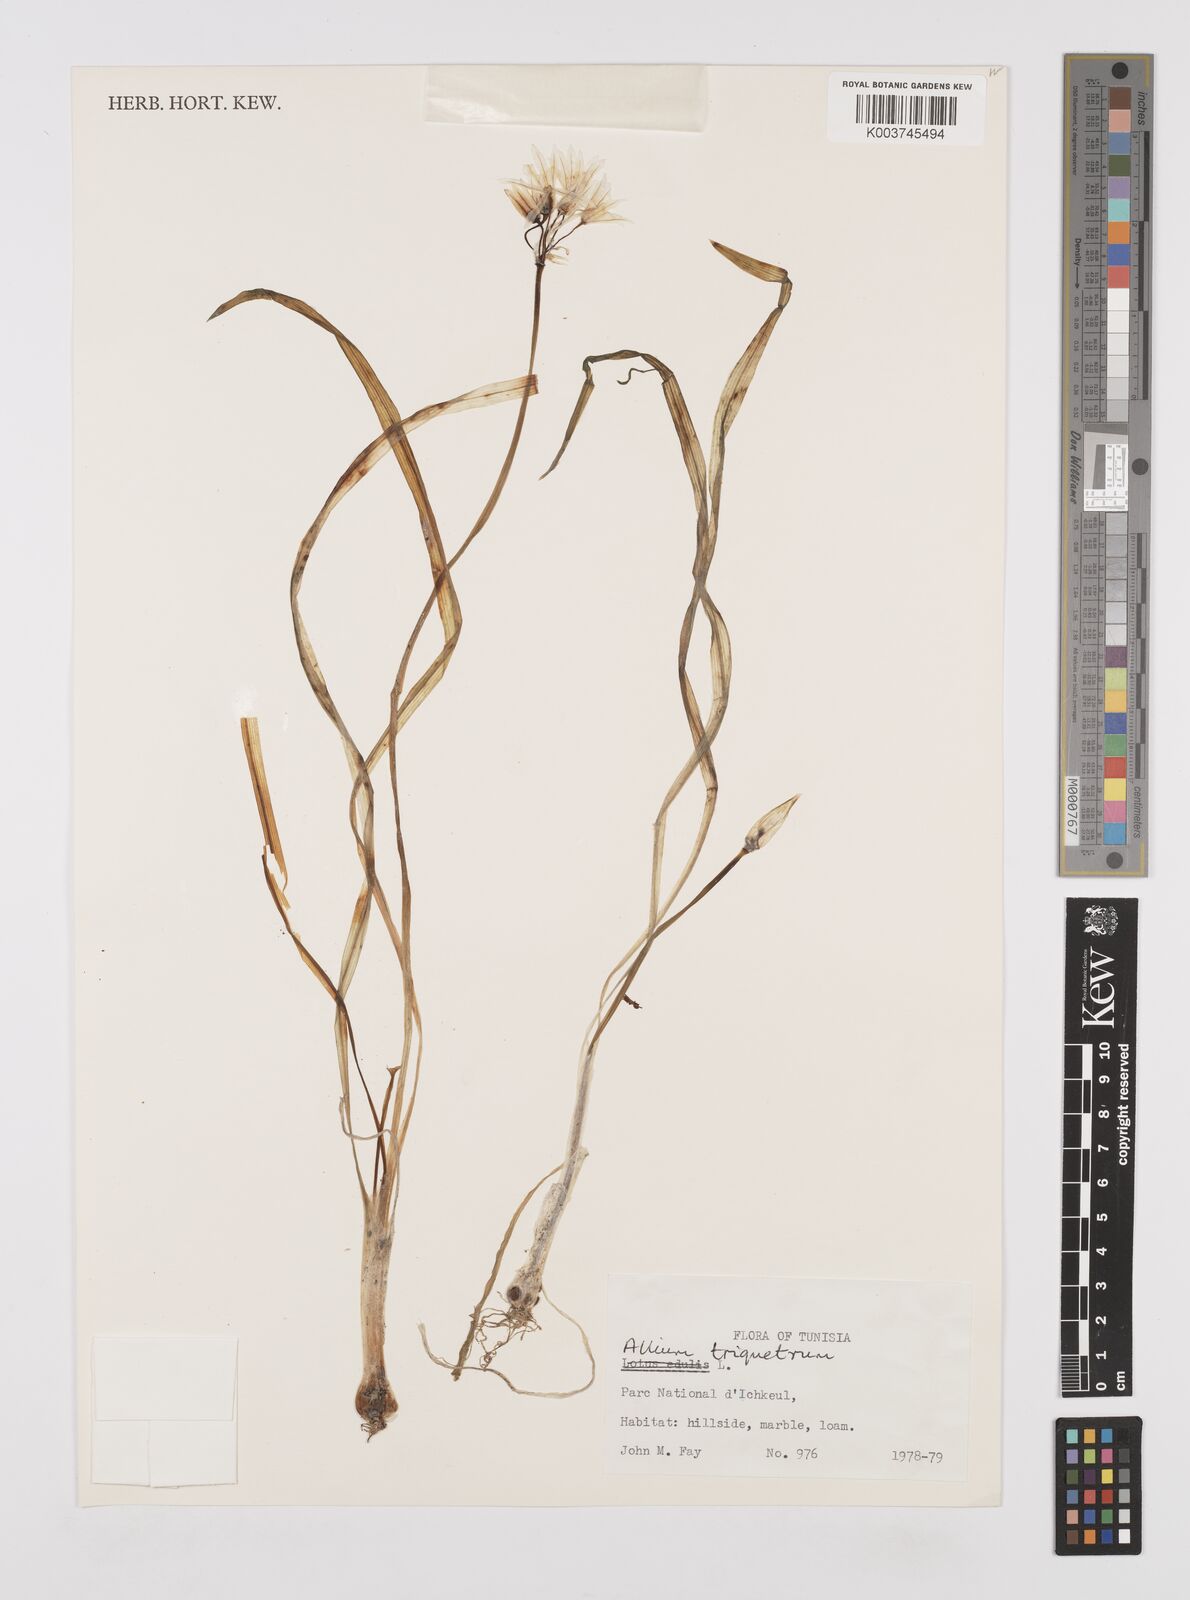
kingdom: Plantae
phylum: Tracheophyta
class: Liliopsida
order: Asparagales
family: Amaryllidaceae
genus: Allium
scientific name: Allium triquetrum
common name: Three-cornered garlic
